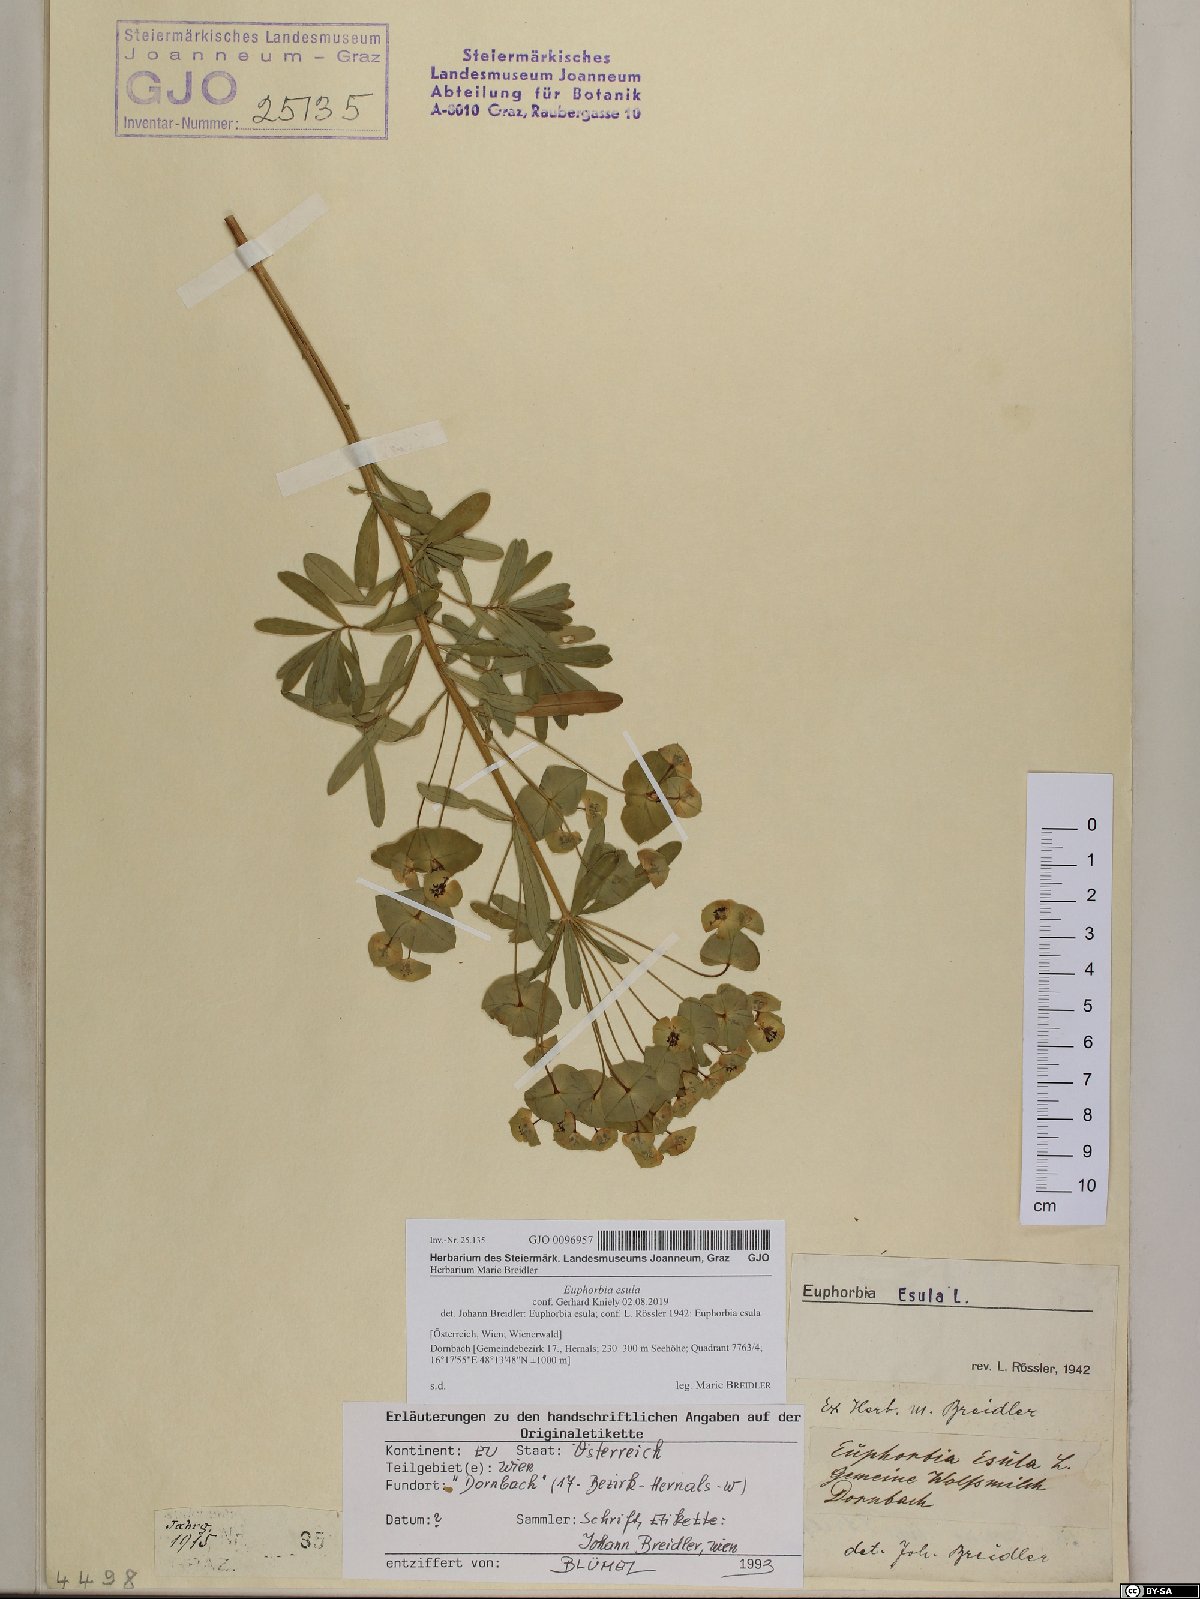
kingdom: Plantae
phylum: Tracheophyta
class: Magnoliopsida
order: Malpighiales
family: Euphorbiaceae
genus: Euphorbia
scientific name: Euphorbia esula
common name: Leafy spurge
